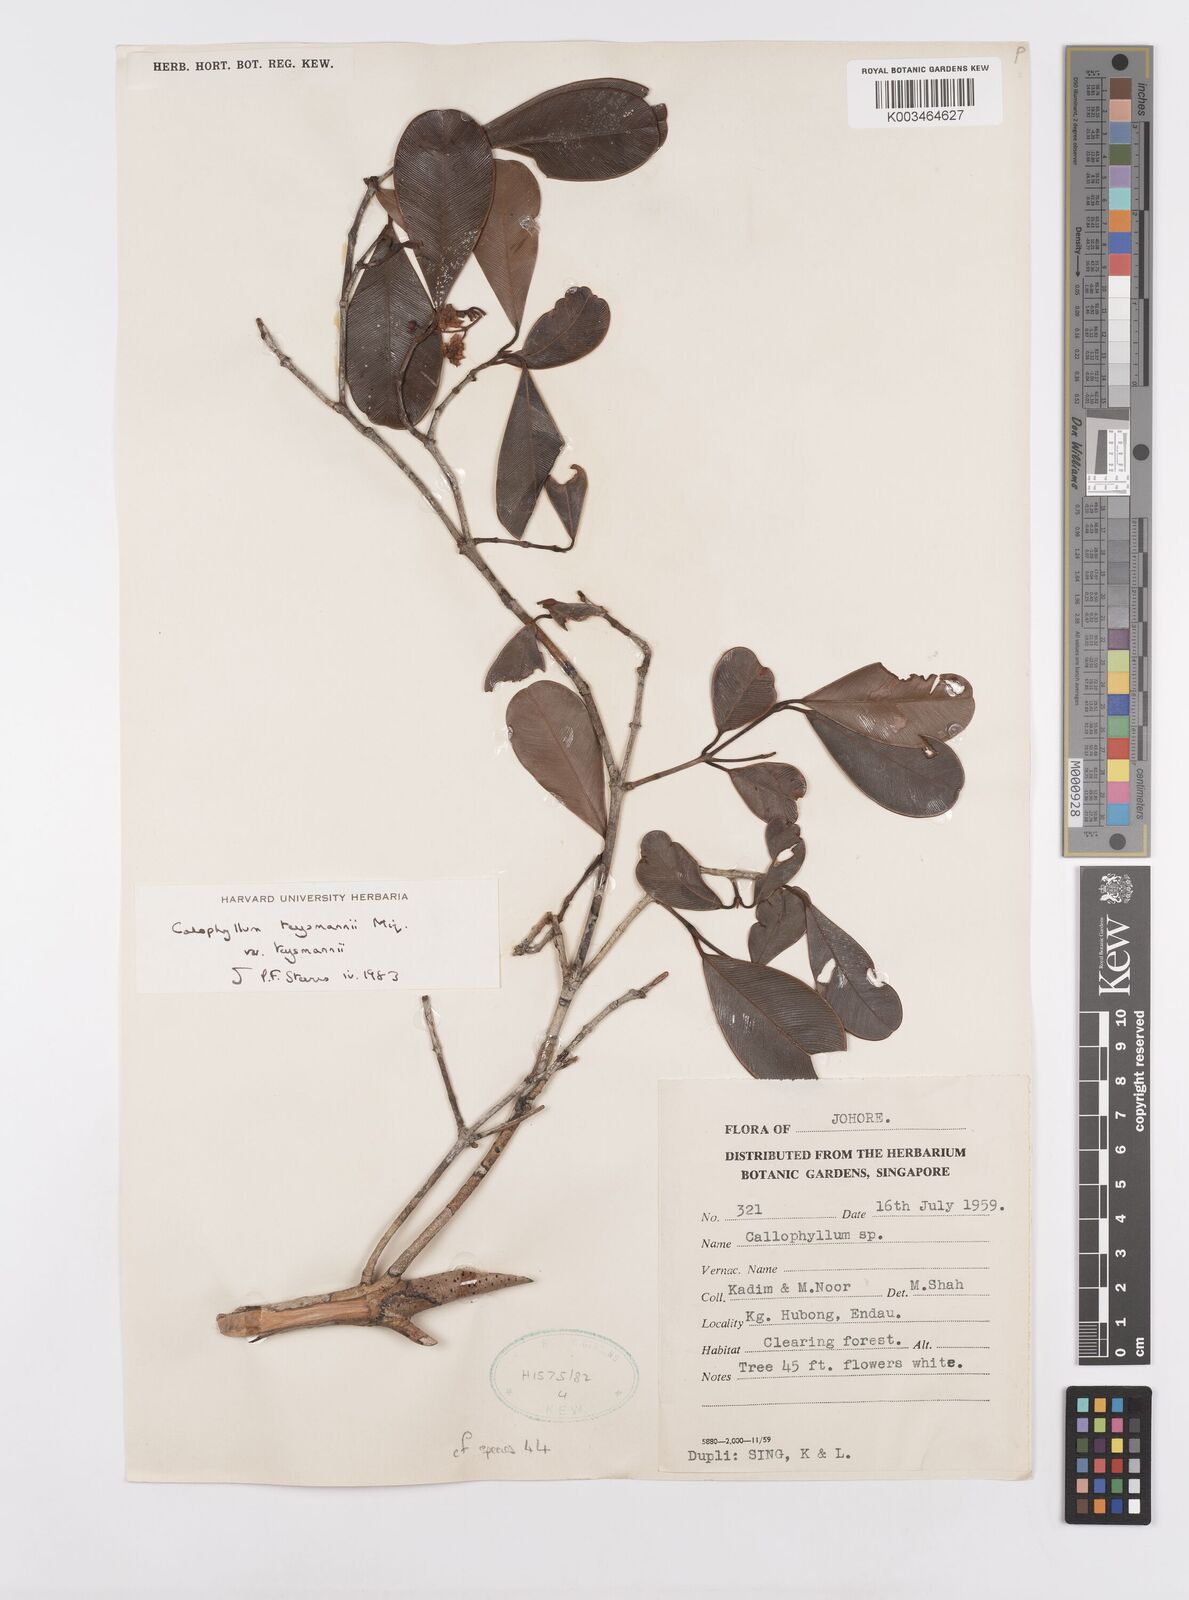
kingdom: Plantae
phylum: Tracheophyta
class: Magnoliopsida
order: Malpighiales
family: Calophyllaceae
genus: Calophyllum
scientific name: Calophyllum teysmannii
